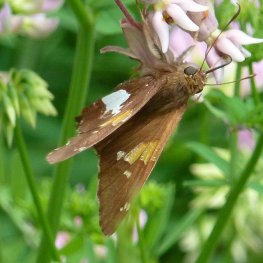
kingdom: Animalia
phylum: Arthropoda
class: Insecta
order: Lepidoptera
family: Hesperiidae
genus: Epargyreus
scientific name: Epargyreus clarus
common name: Silver-spotted Skipper
